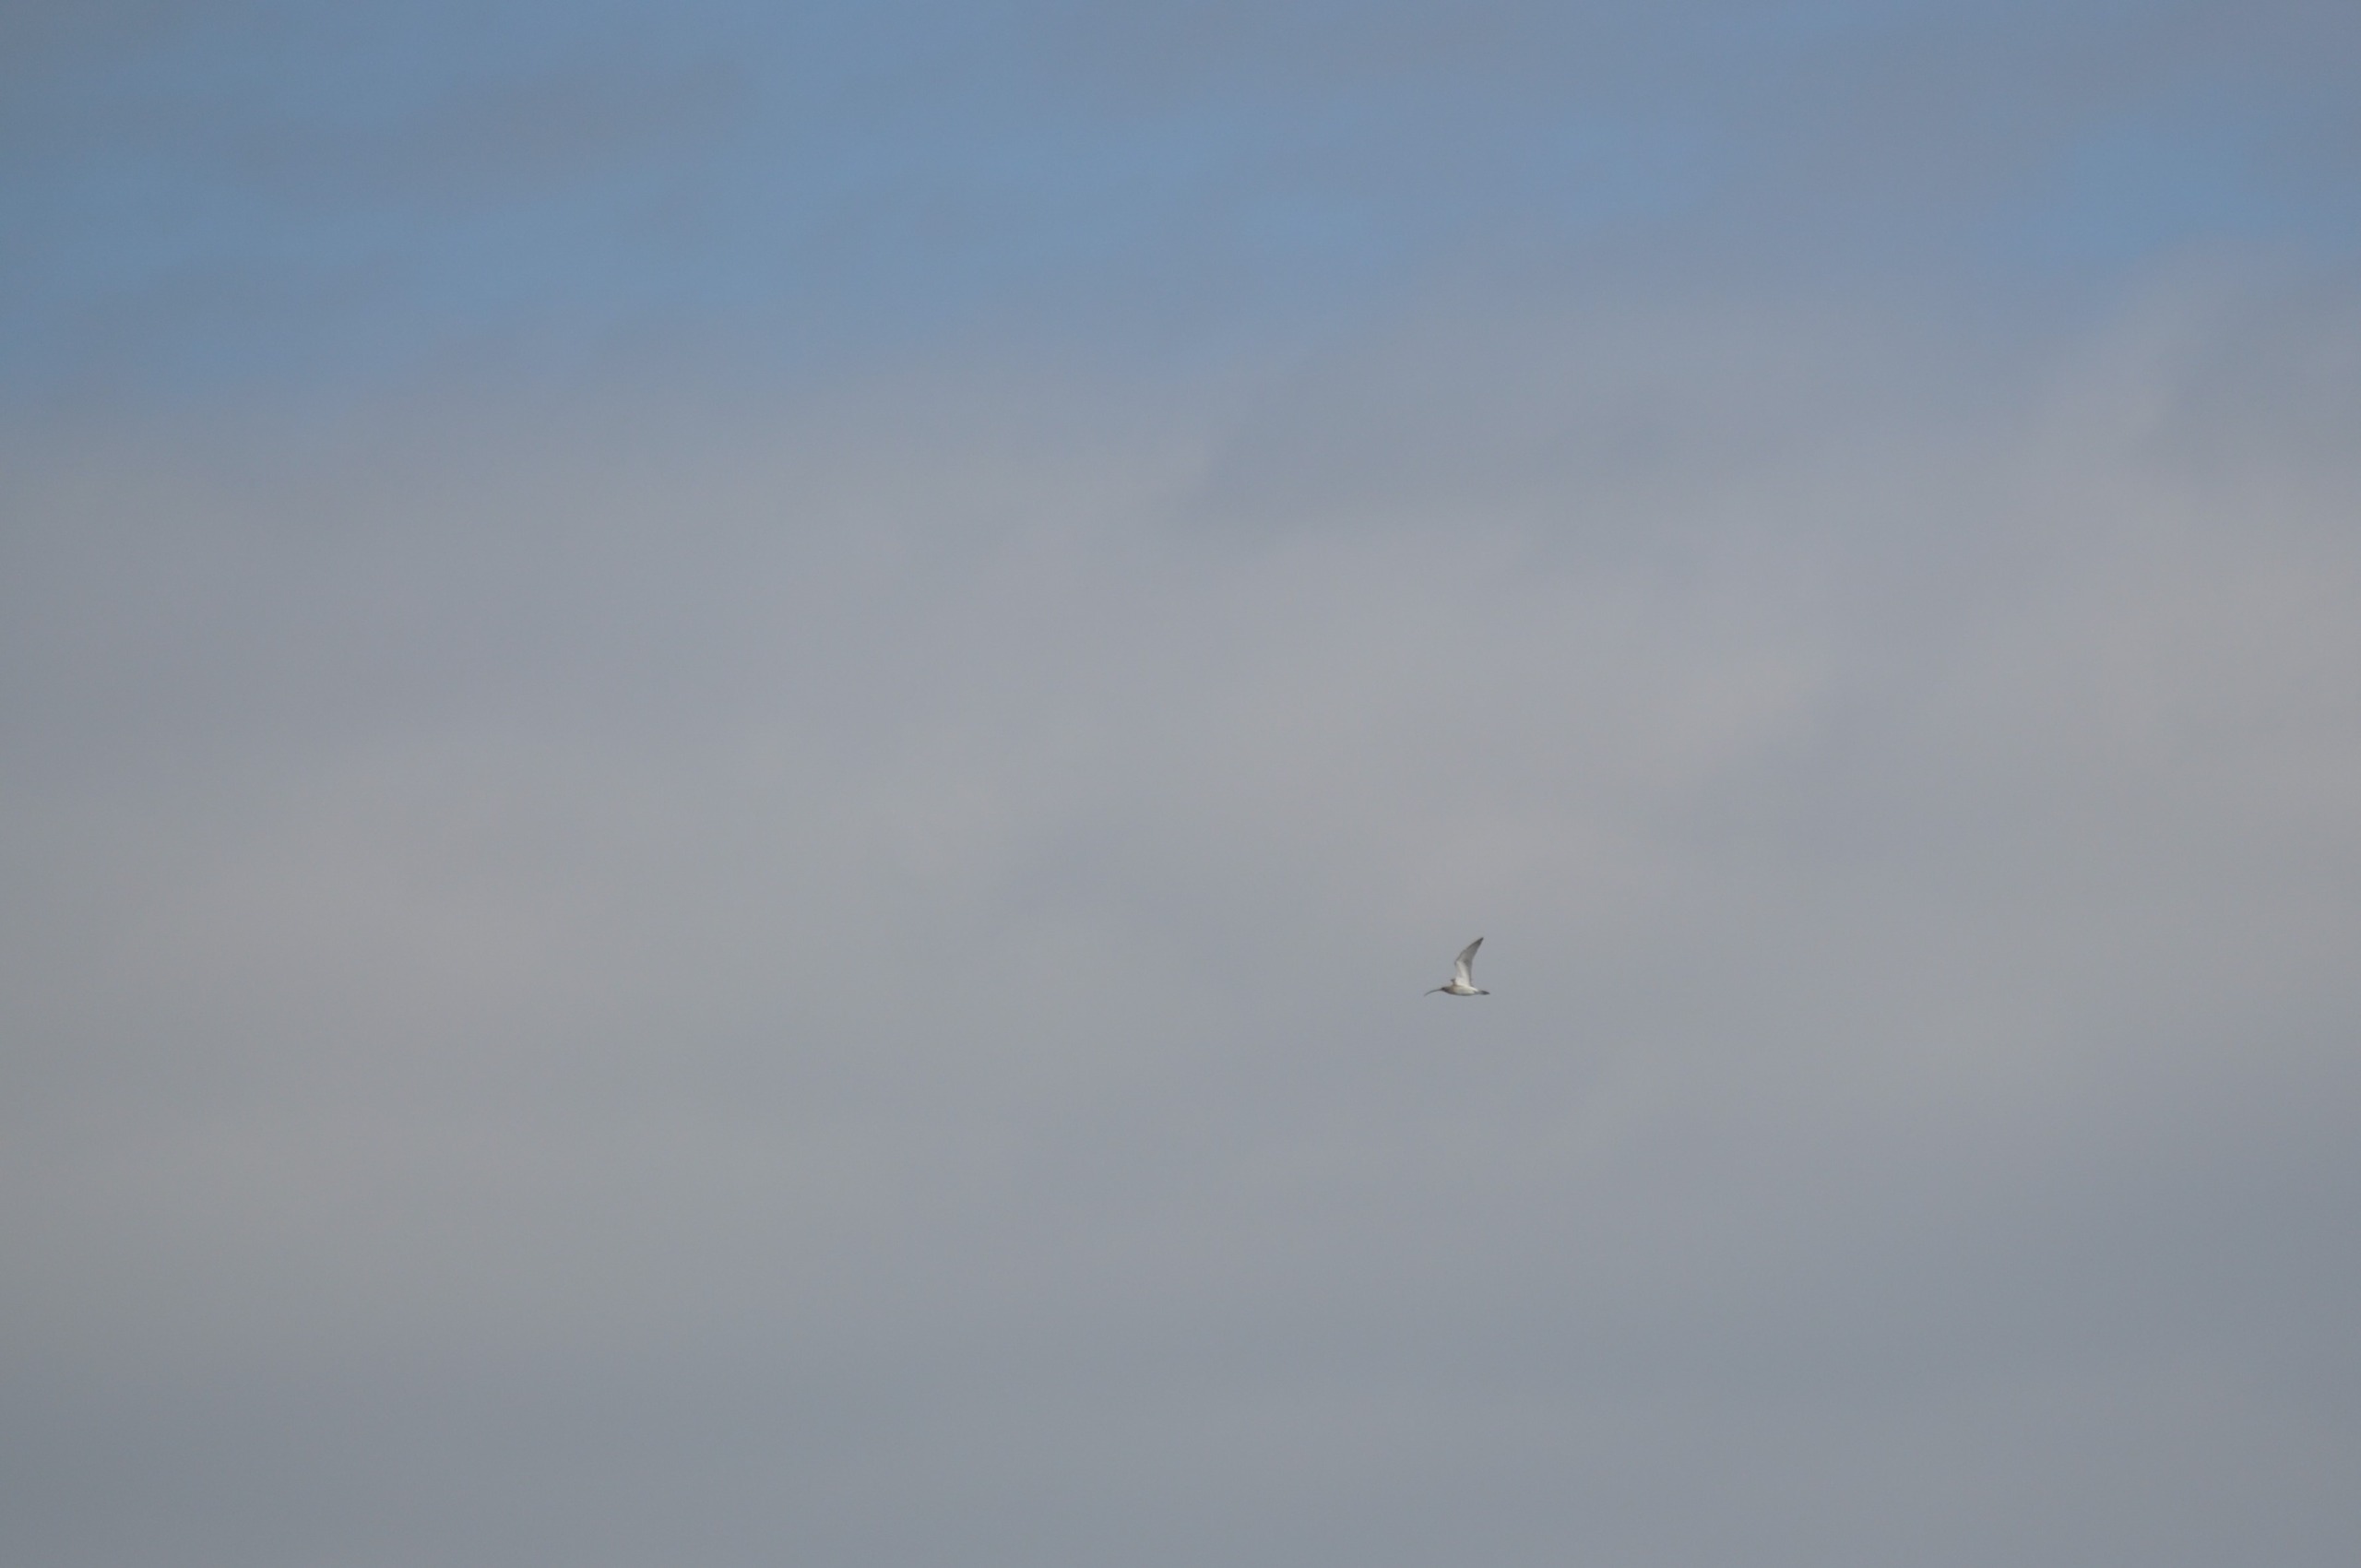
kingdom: Animalia
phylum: Chordata
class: Aves
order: Charadriiformes
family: Scolopacidae
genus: Numenius
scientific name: Numenius arquata
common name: Storspove
